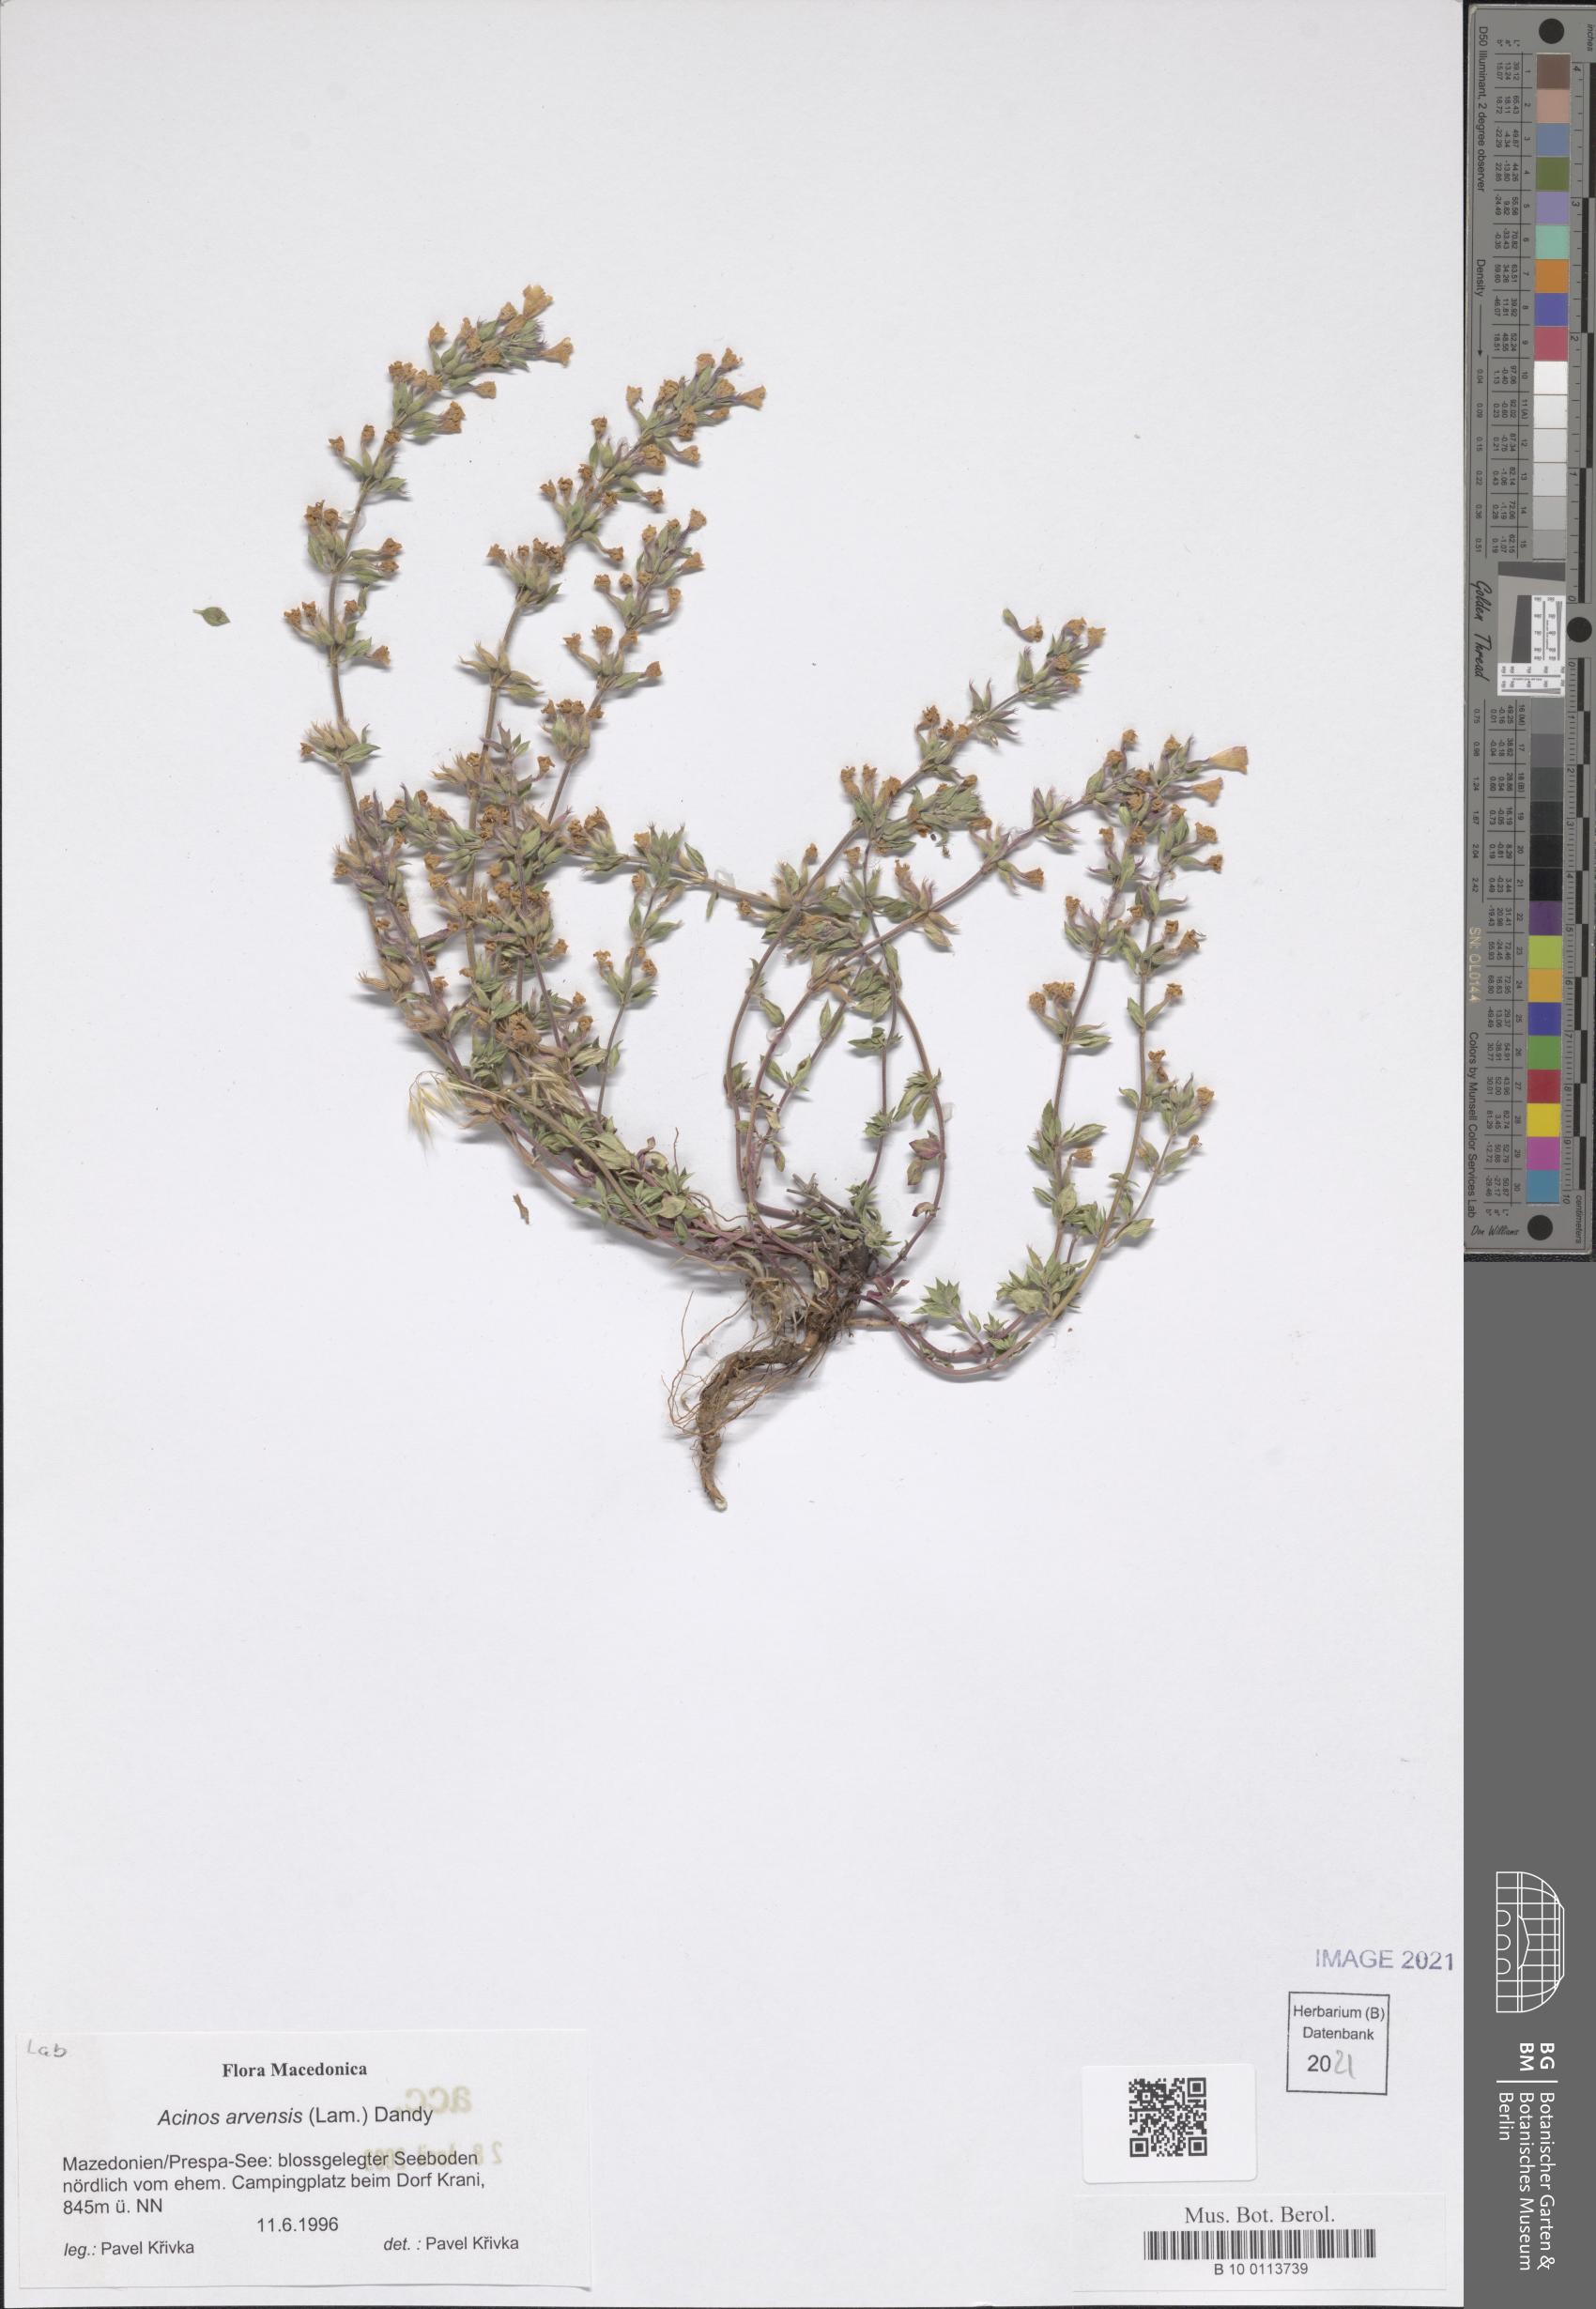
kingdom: Plantae
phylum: Tracheophyta
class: Magnoliopsida
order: Lamiales
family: Lamiaceae
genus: Clinopodium
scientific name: Clinopodium acinos
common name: Basil thyme
